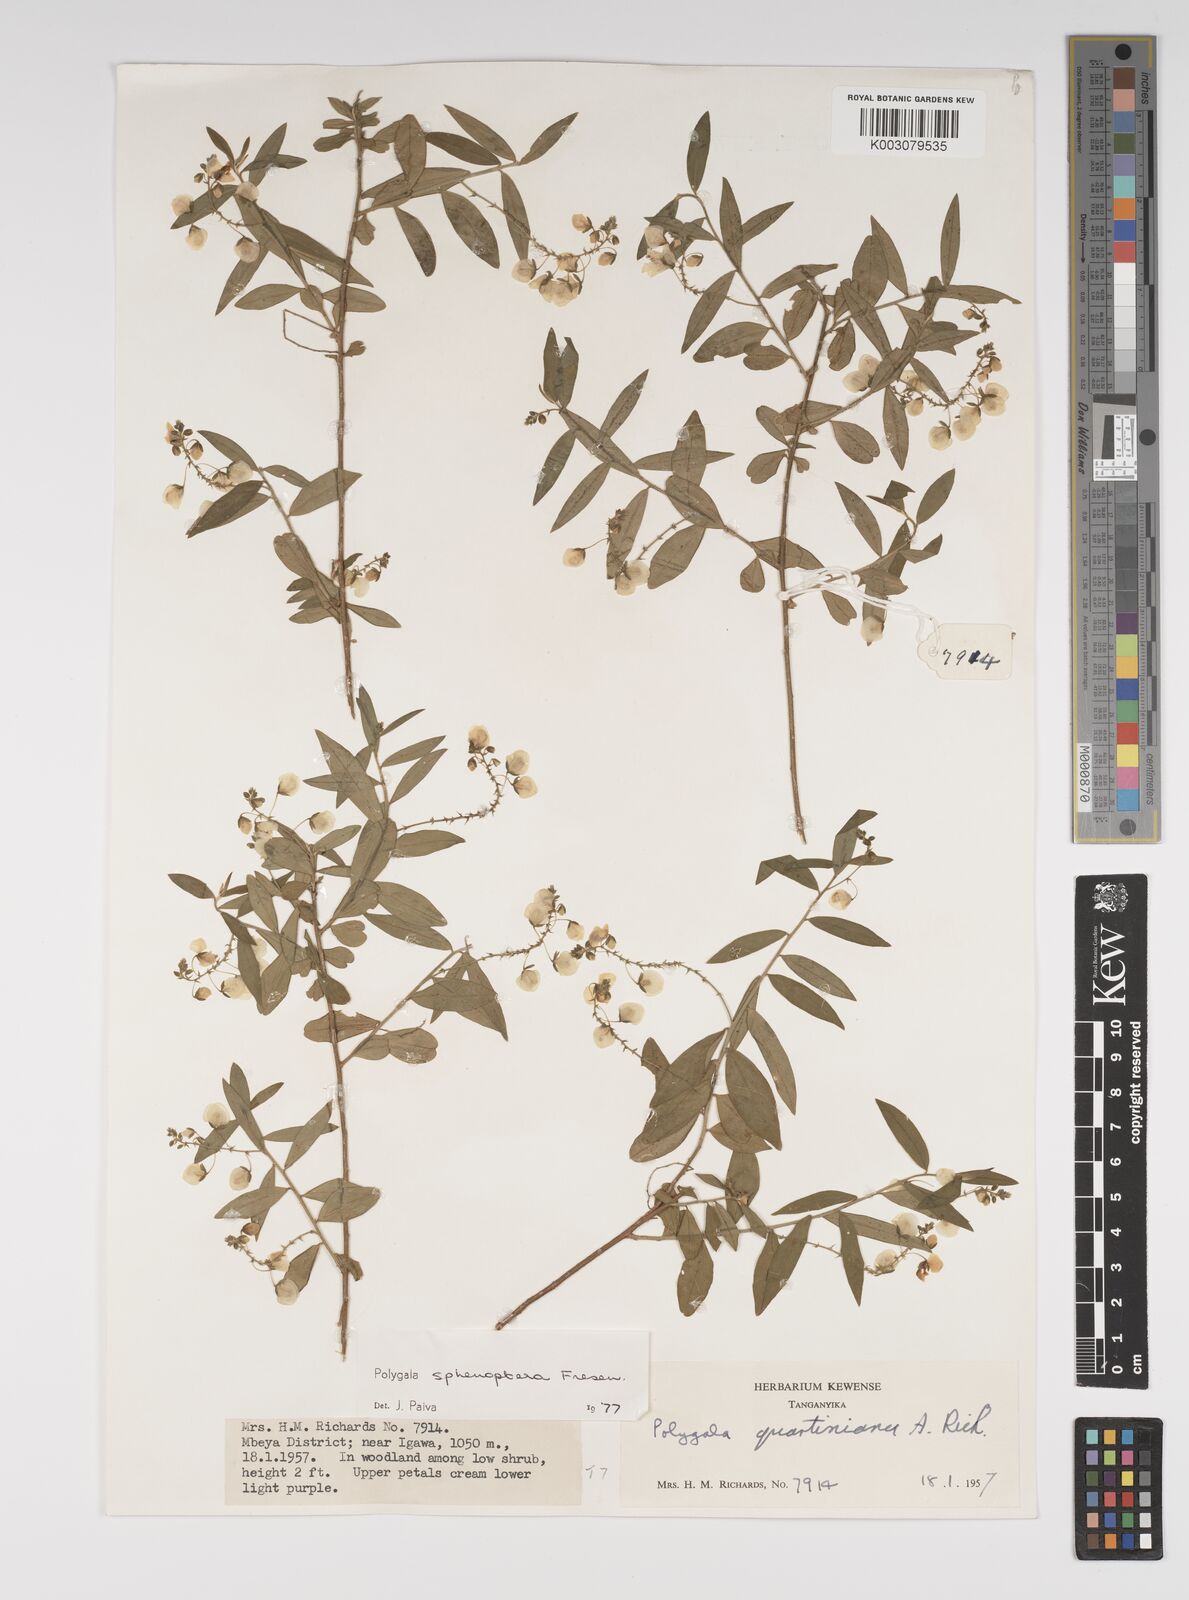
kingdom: Plantae
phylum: Tracheophyta
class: Magnoliopsida
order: Fabales
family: Polygalaceae
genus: Polygala
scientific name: Polygala sphenoptera
